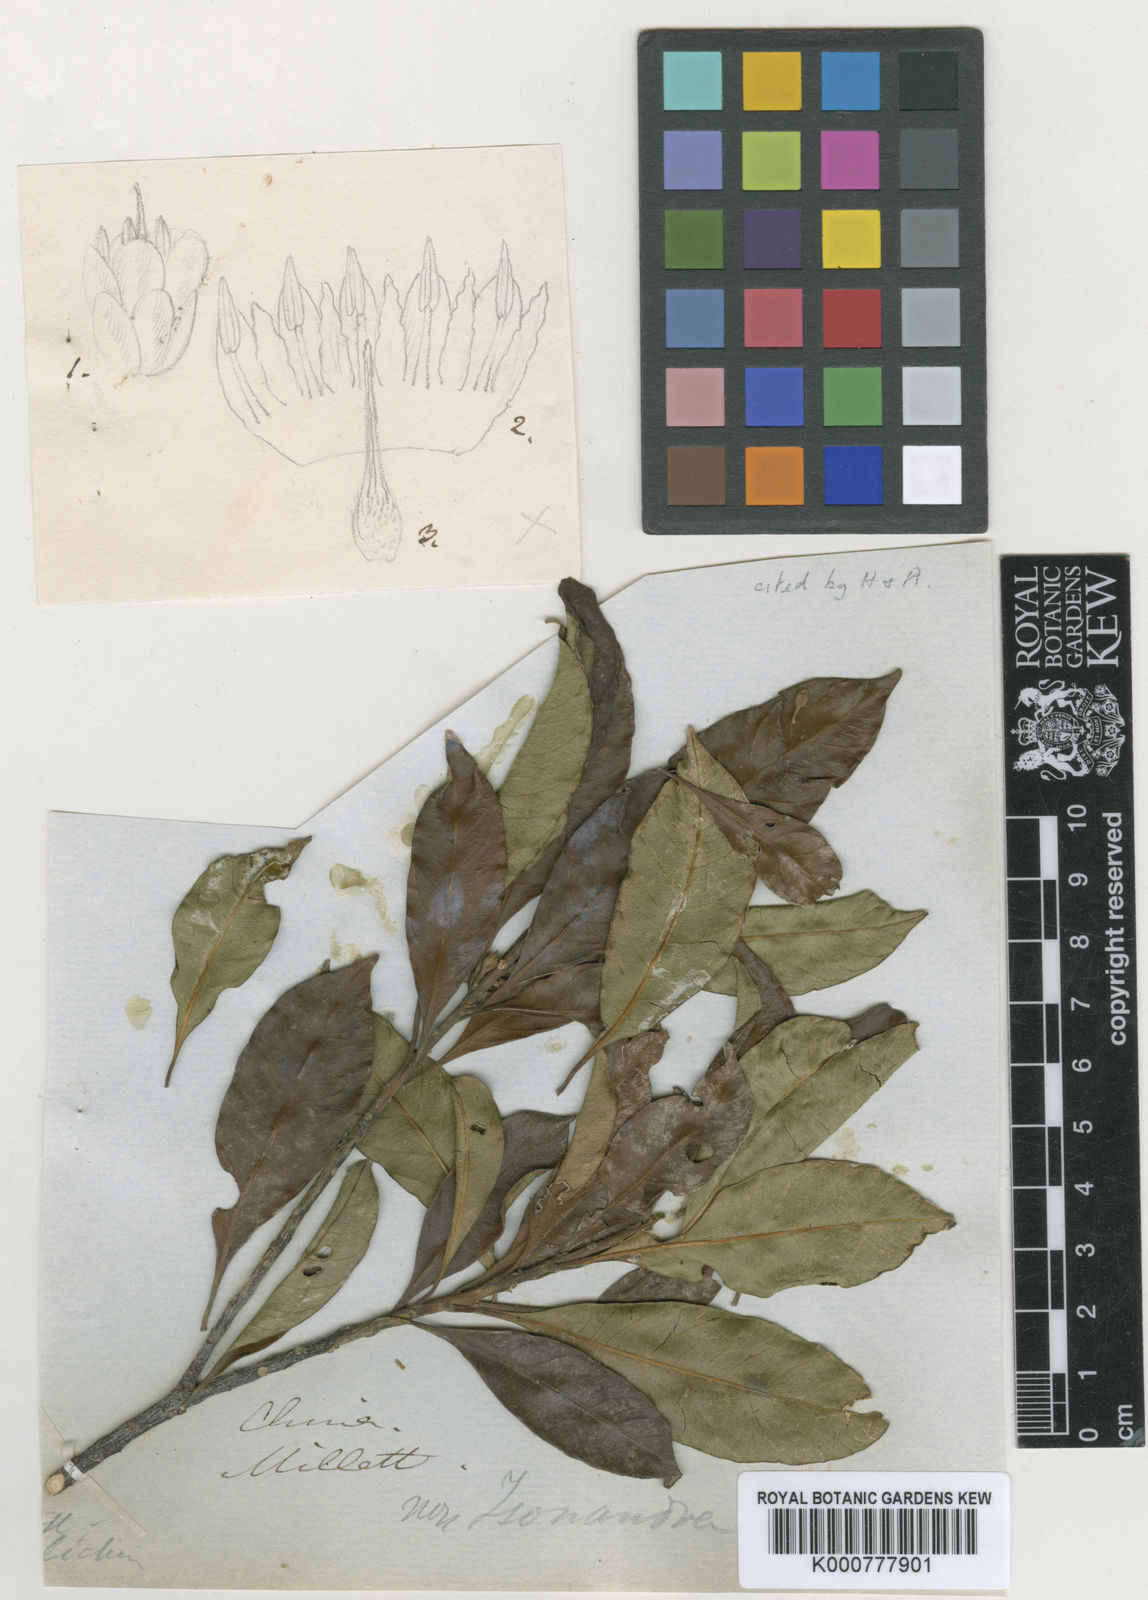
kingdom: Plantae
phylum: Tracheophyta
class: Magnoliopsida
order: Ericales
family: Sapotaceae
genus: Sideroxylon
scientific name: Sideroxylon wightianum
